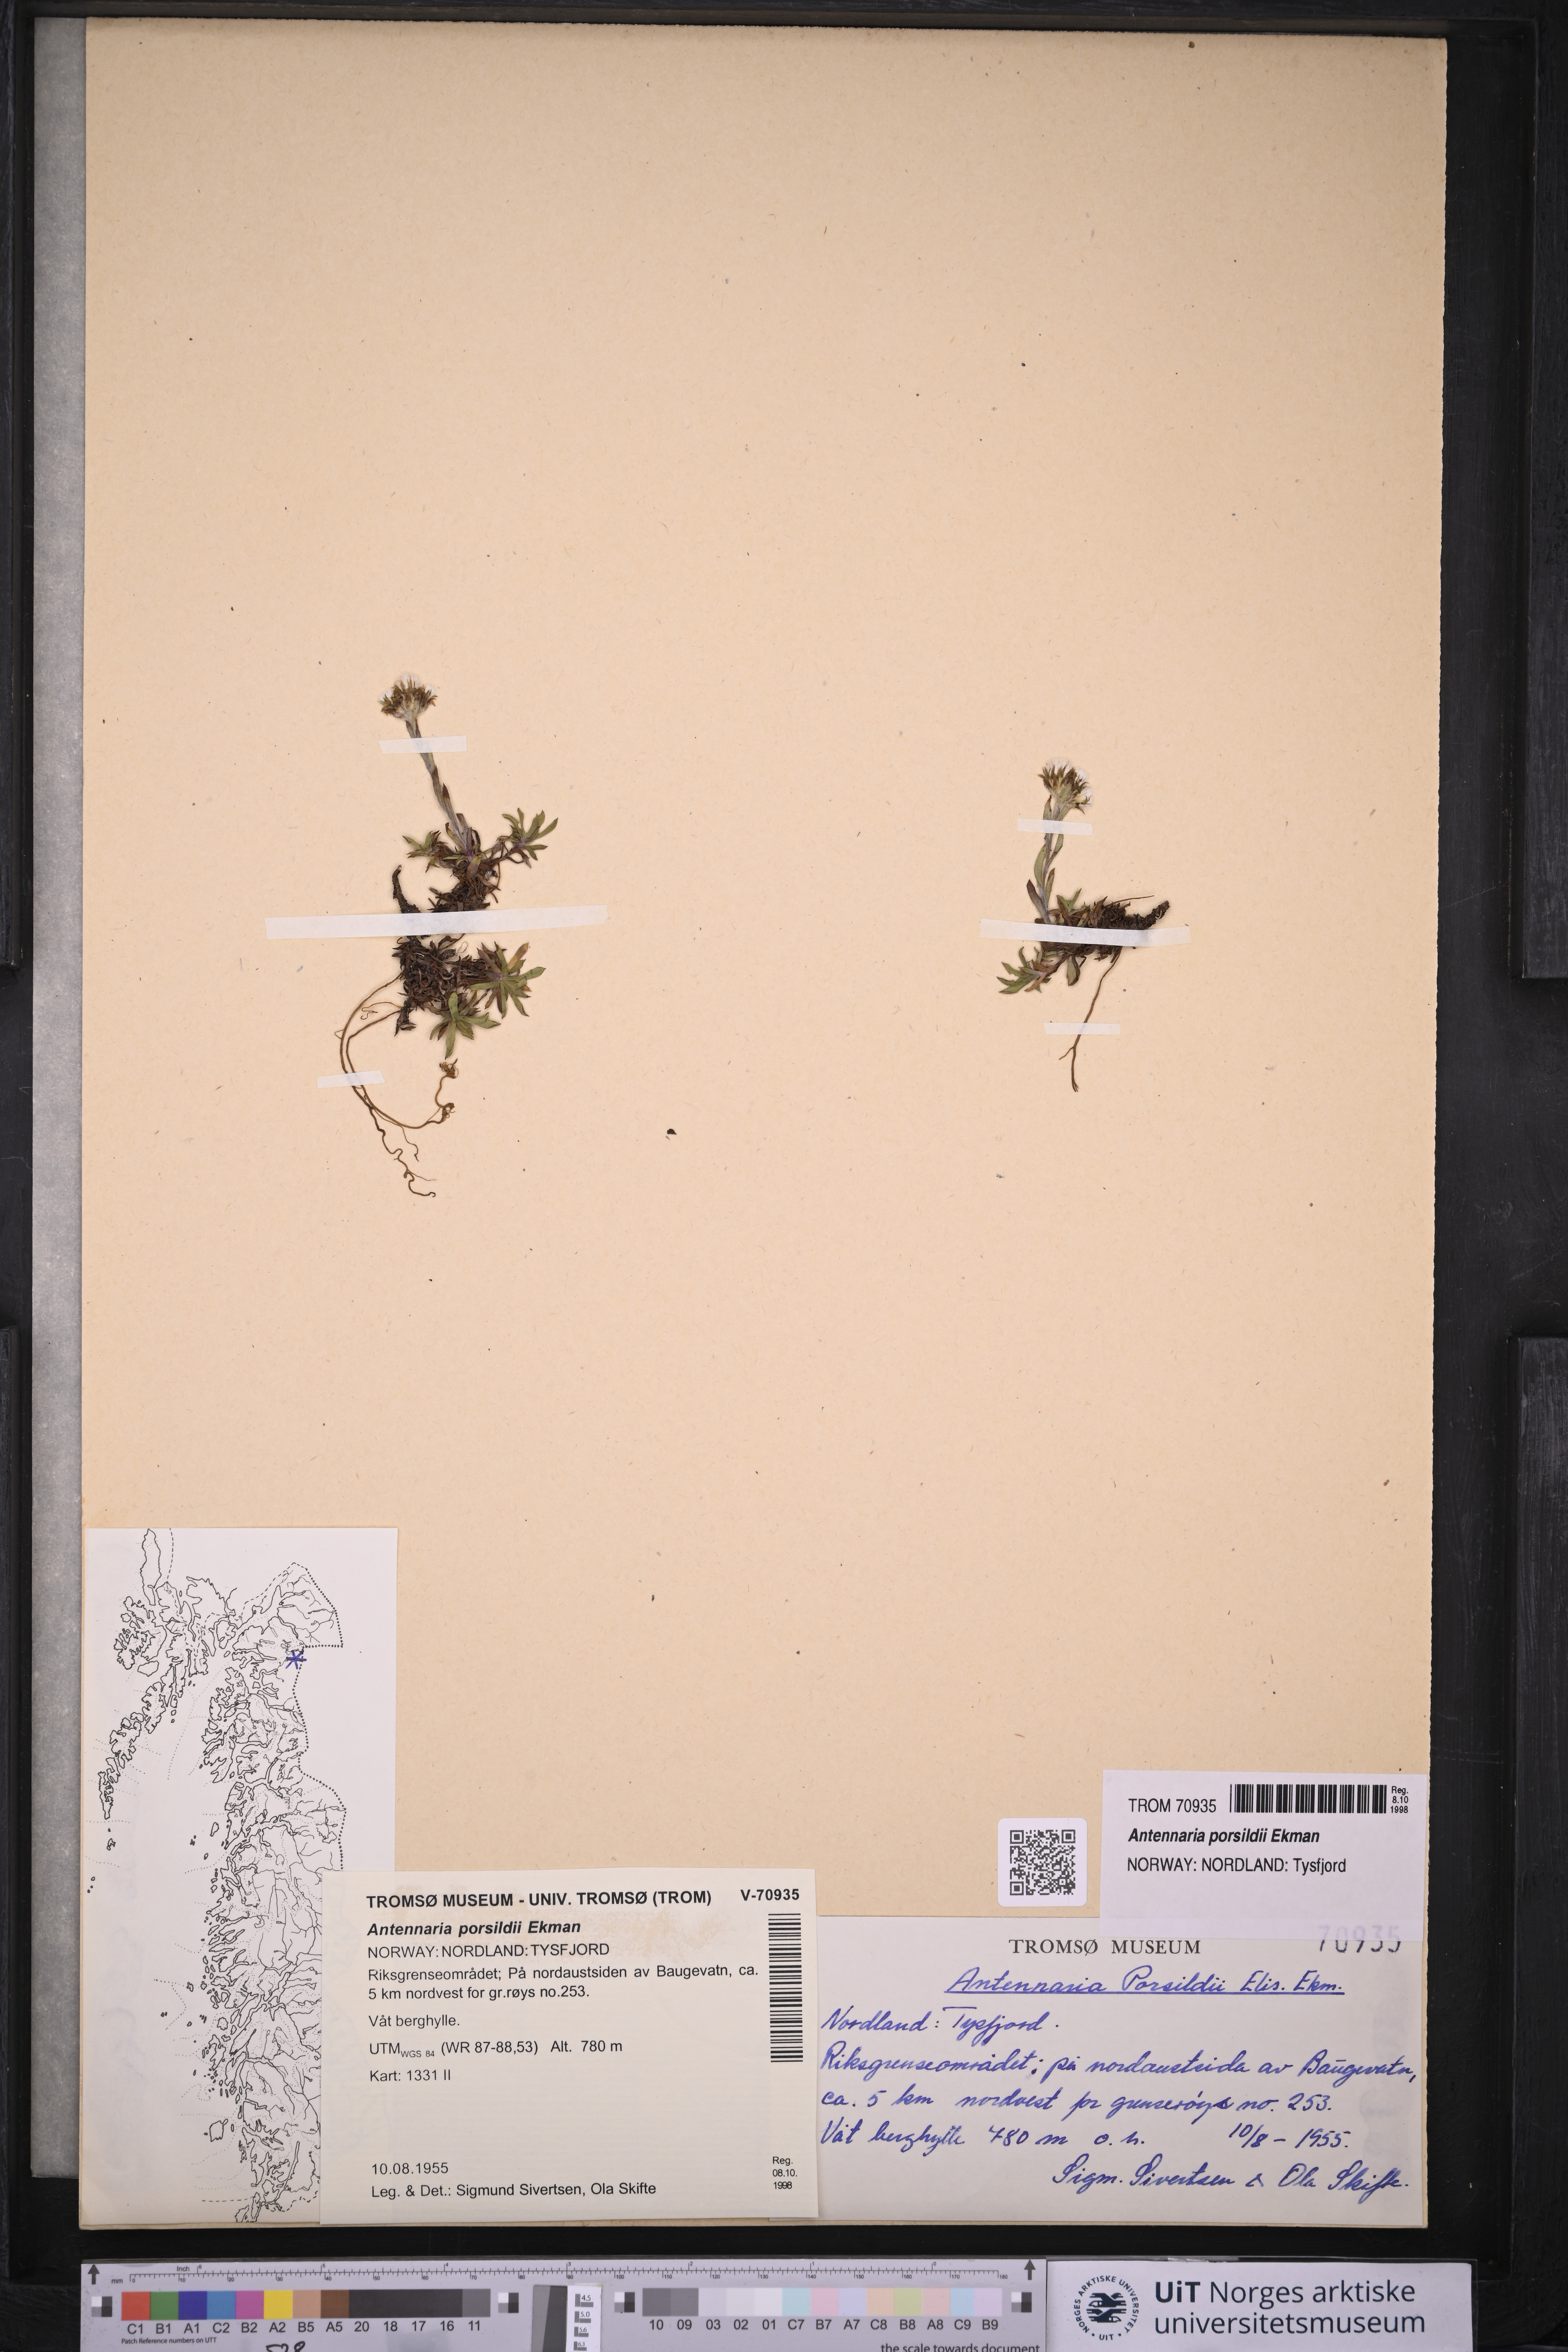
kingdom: Plantae
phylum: Tracheophyta
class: Magnoliopsida
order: Asterales
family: Asteraceae
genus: Antennaria
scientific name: Antennaria porsildii
